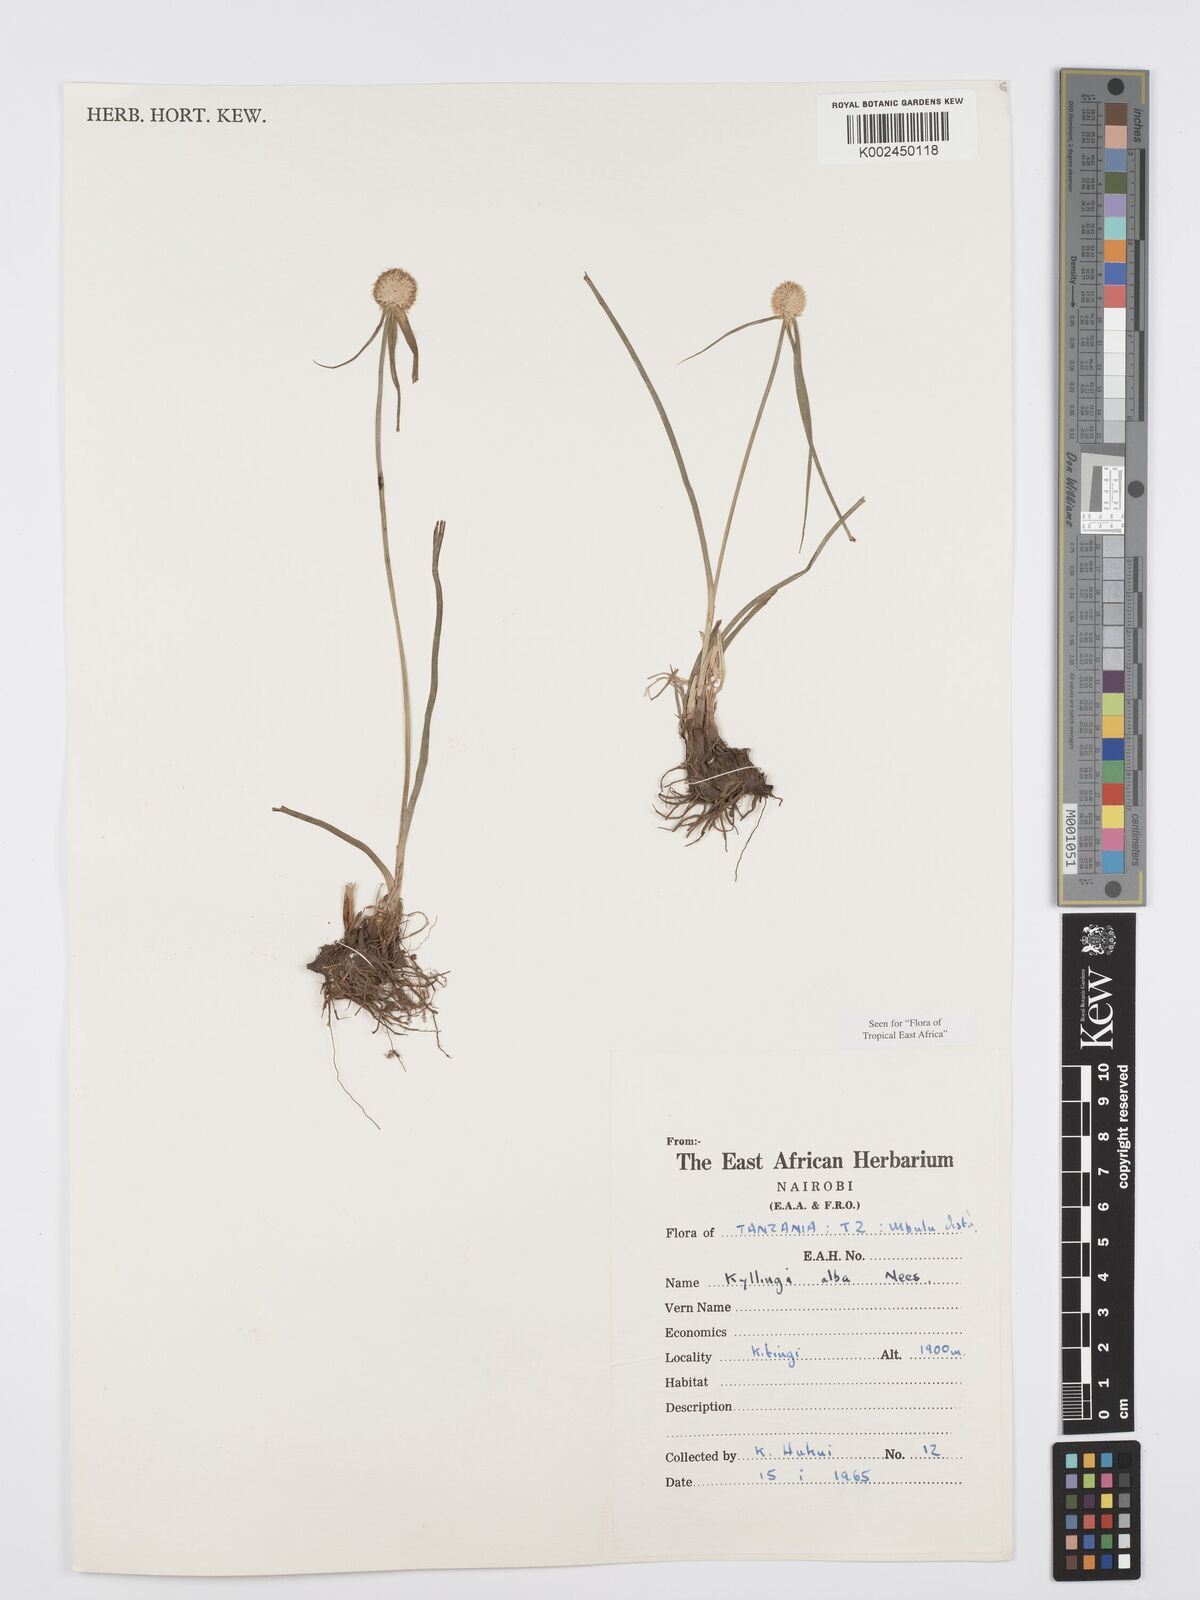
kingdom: Plantae
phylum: Tracheophyta
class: Liliopsida
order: Poales
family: Cyperaceae
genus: Cyperus
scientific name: Cyperus
